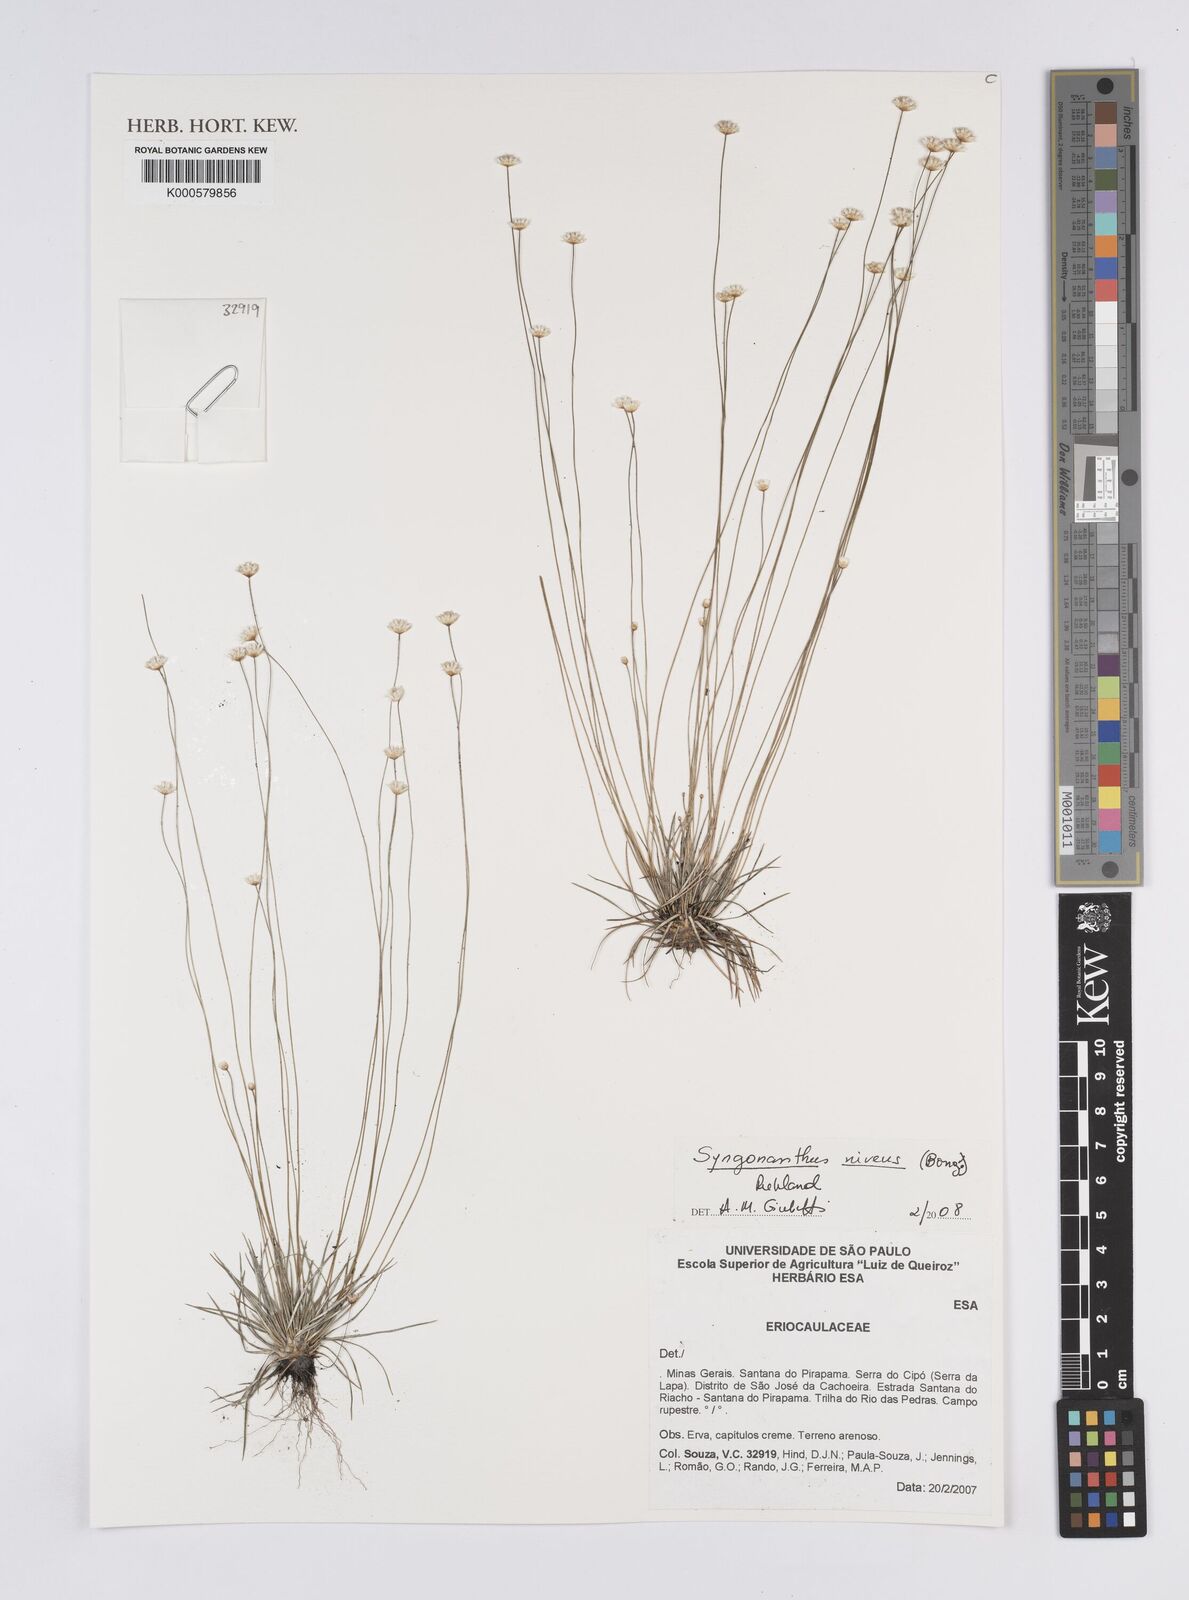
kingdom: Plantae
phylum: Tracheophyta
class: Liliopsida
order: Poales
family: Eriocaulaceae
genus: Comanthera
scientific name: Comanthera nivea
